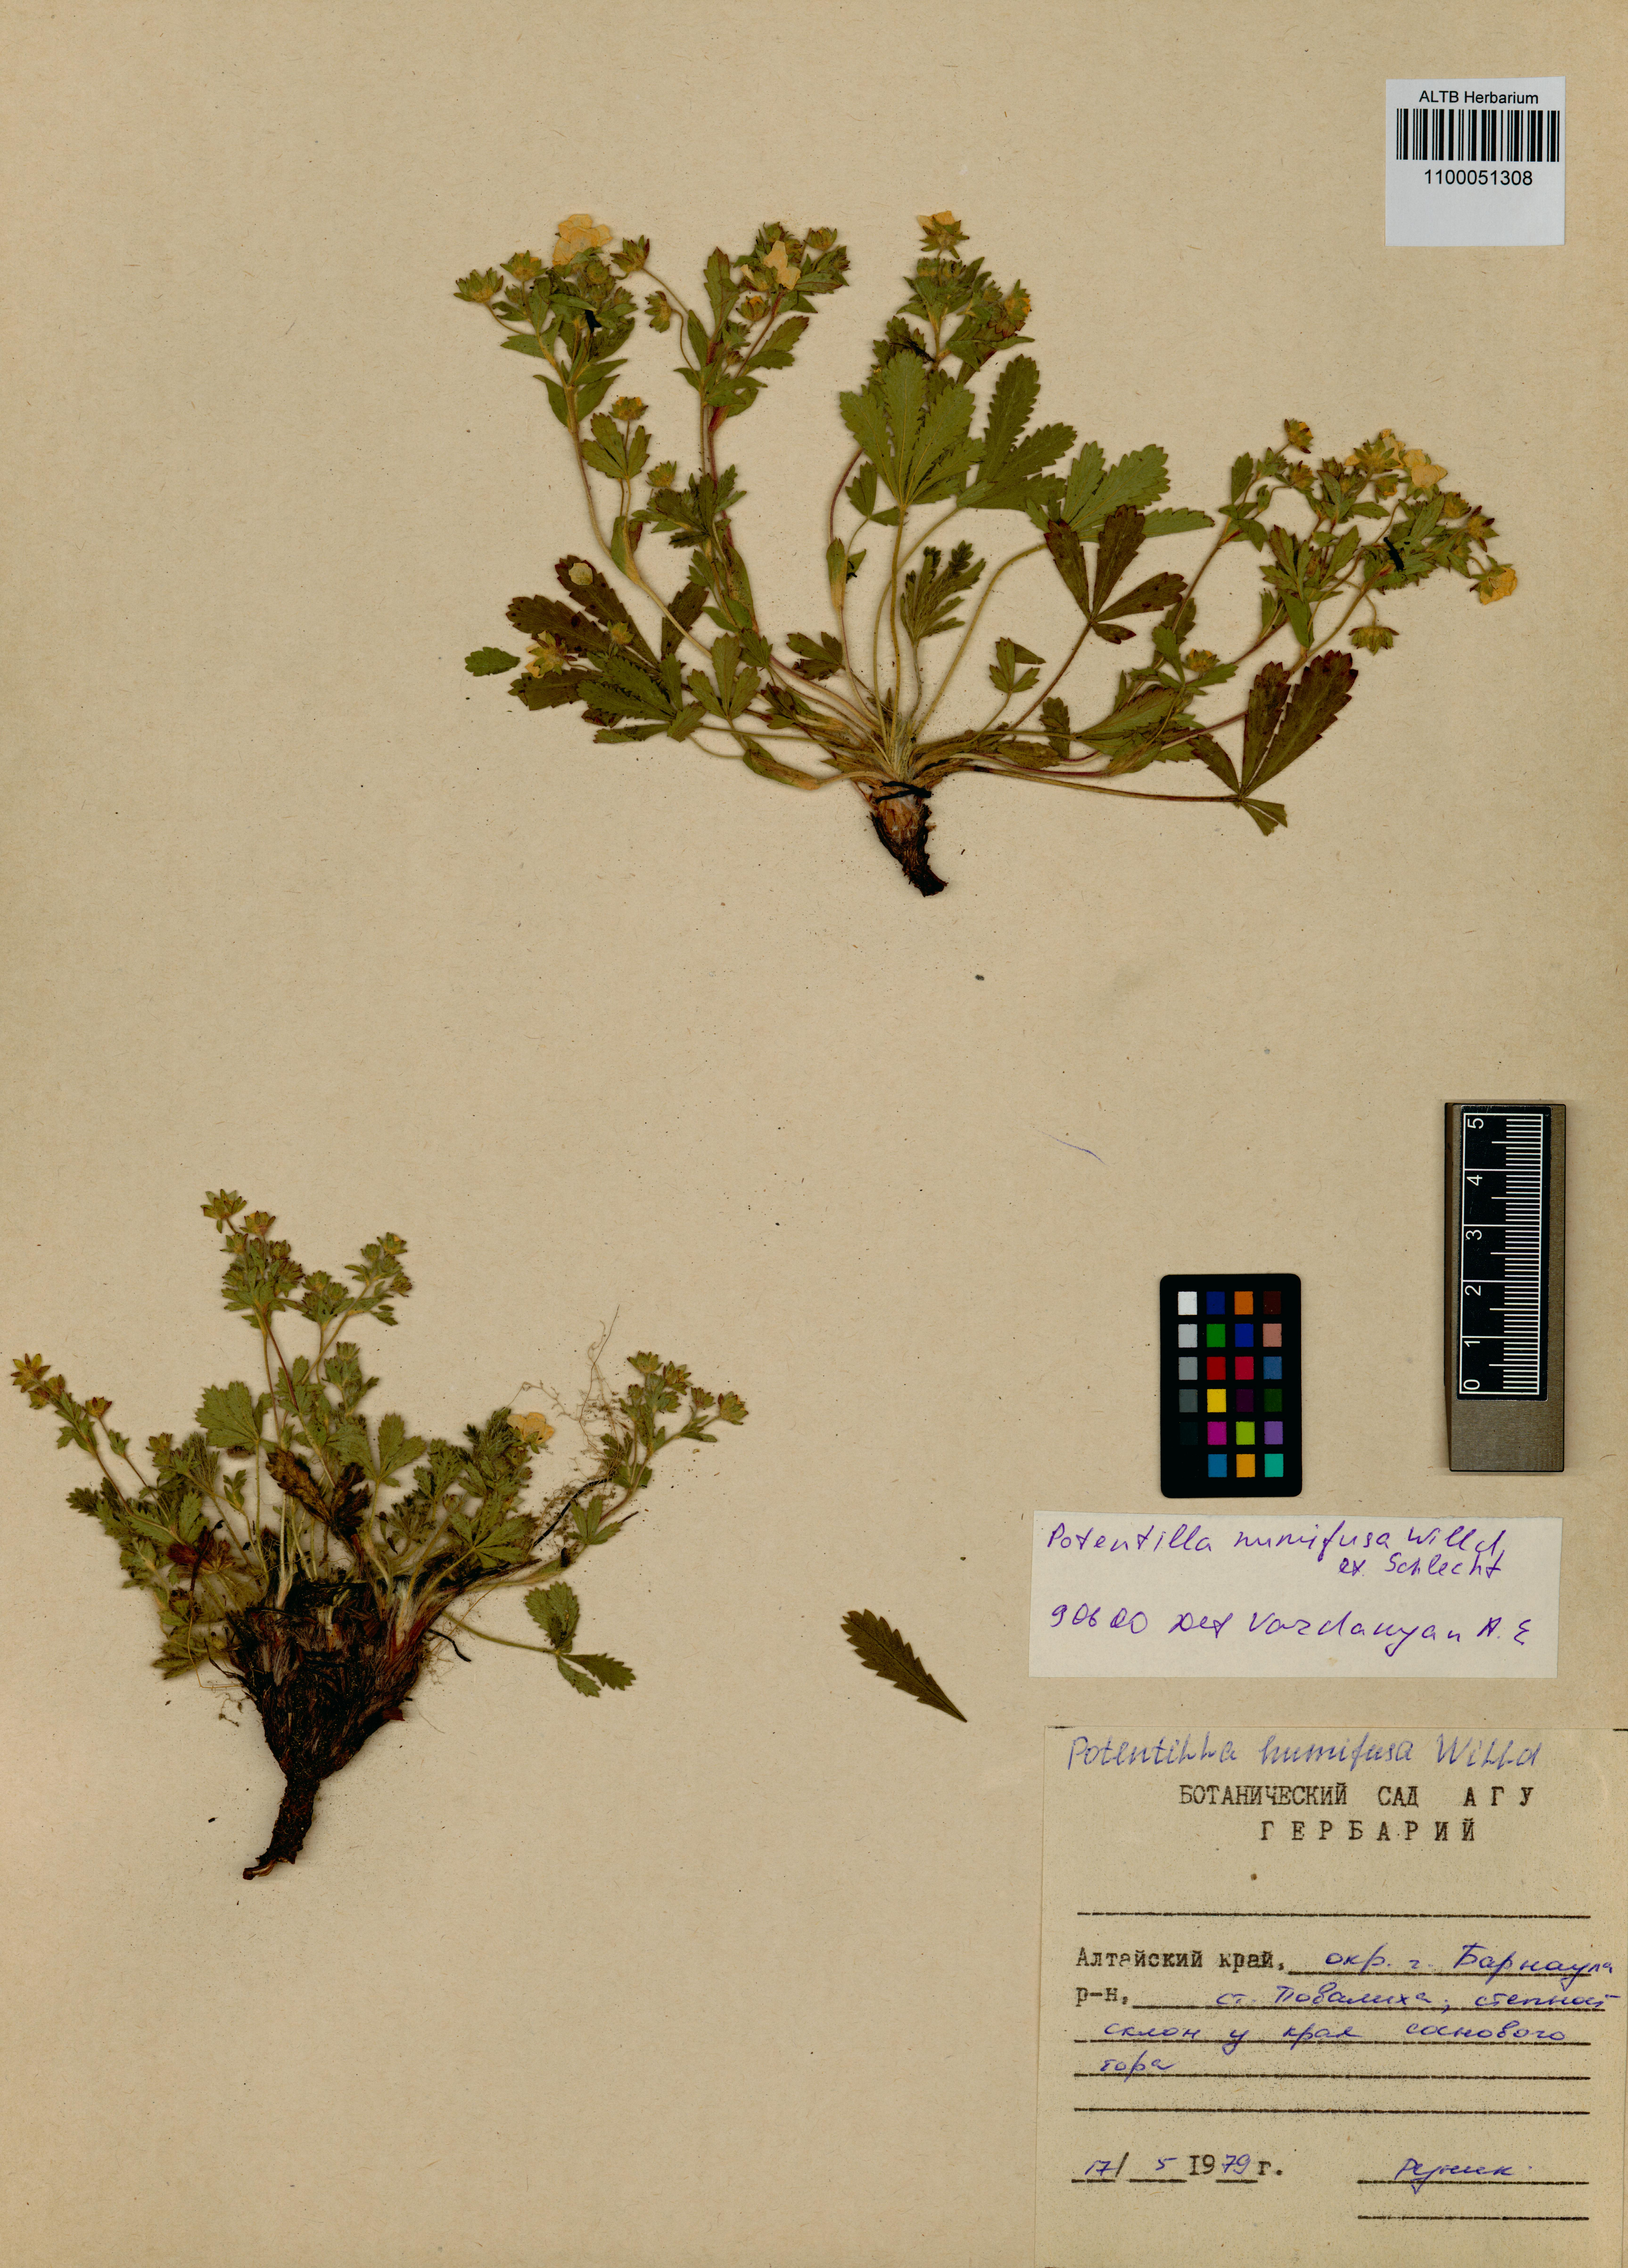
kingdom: Plantae
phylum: Tracheophyta
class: Magnoliopsida
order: Rosales
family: Rosaceae
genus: Potentilla
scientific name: Potentilla humifusa
